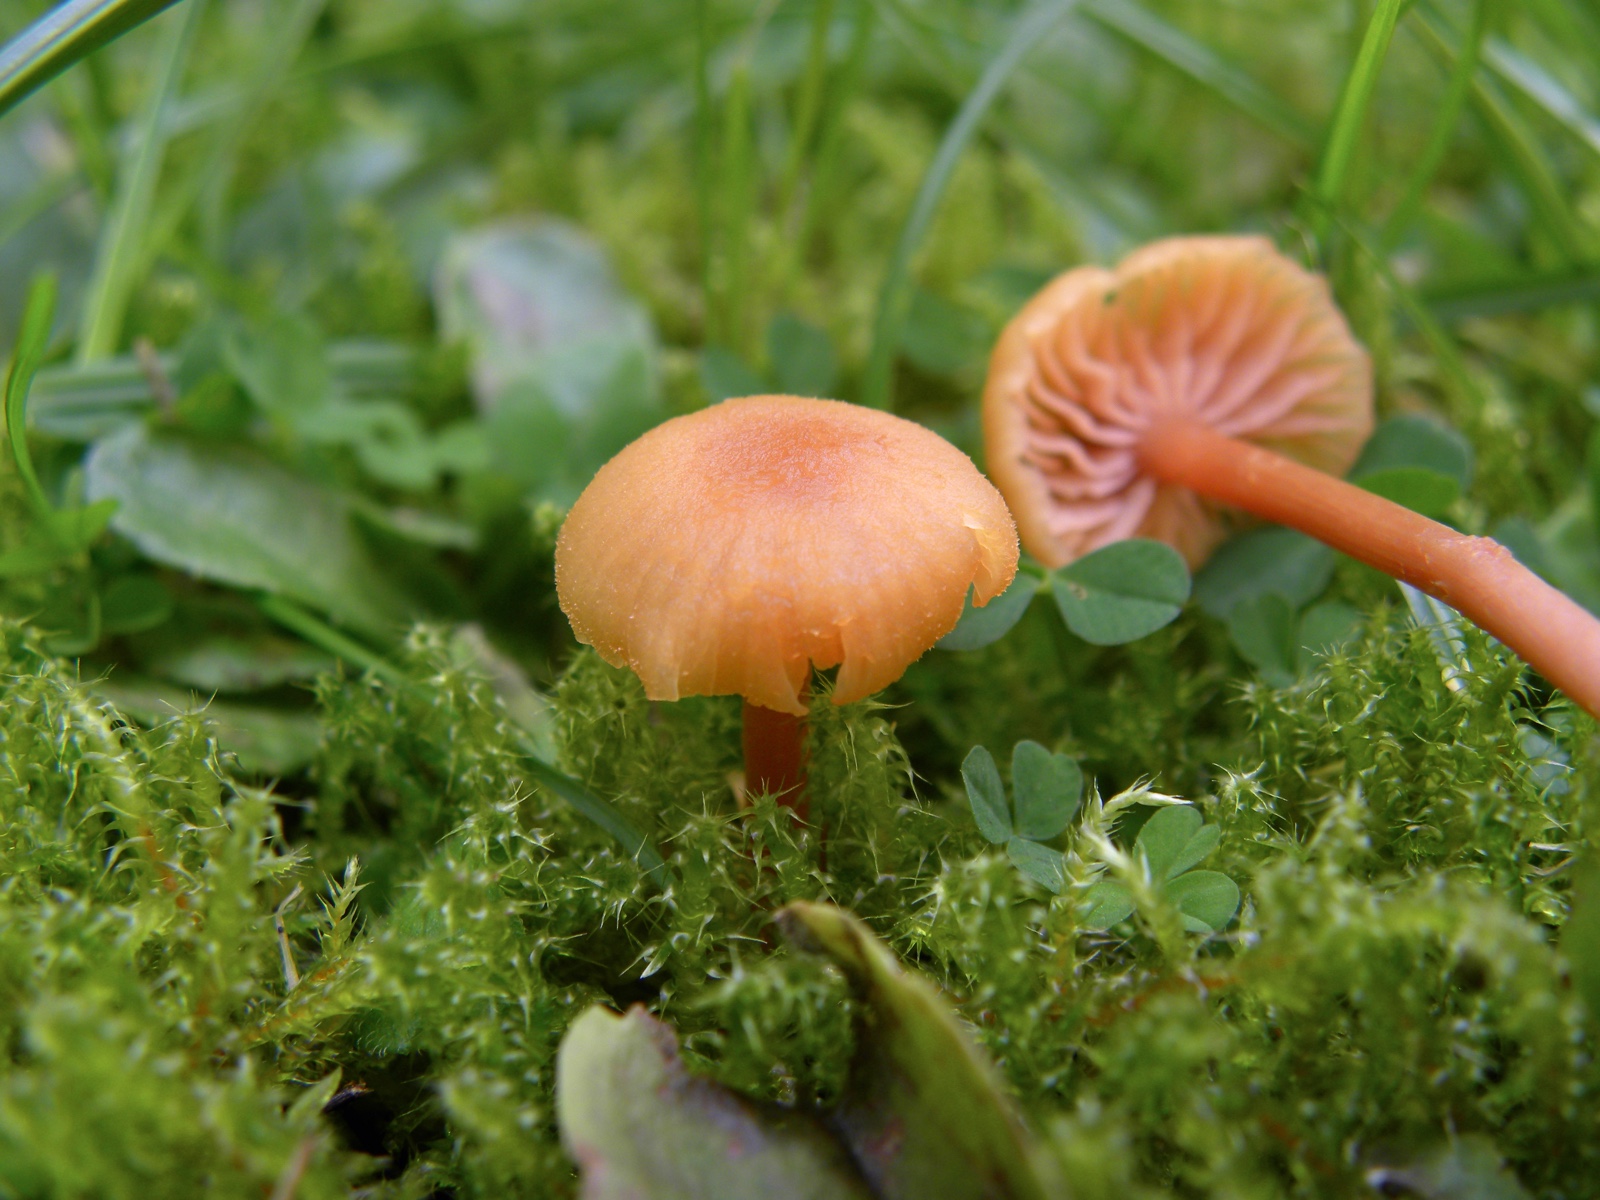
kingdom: Fungi
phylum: Basidiomycota
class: Agaricomycetes
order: Agaricales
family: Hydnangiaceae
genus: Laccaria
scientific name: Laccaria laccata
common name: rød ametysthat
